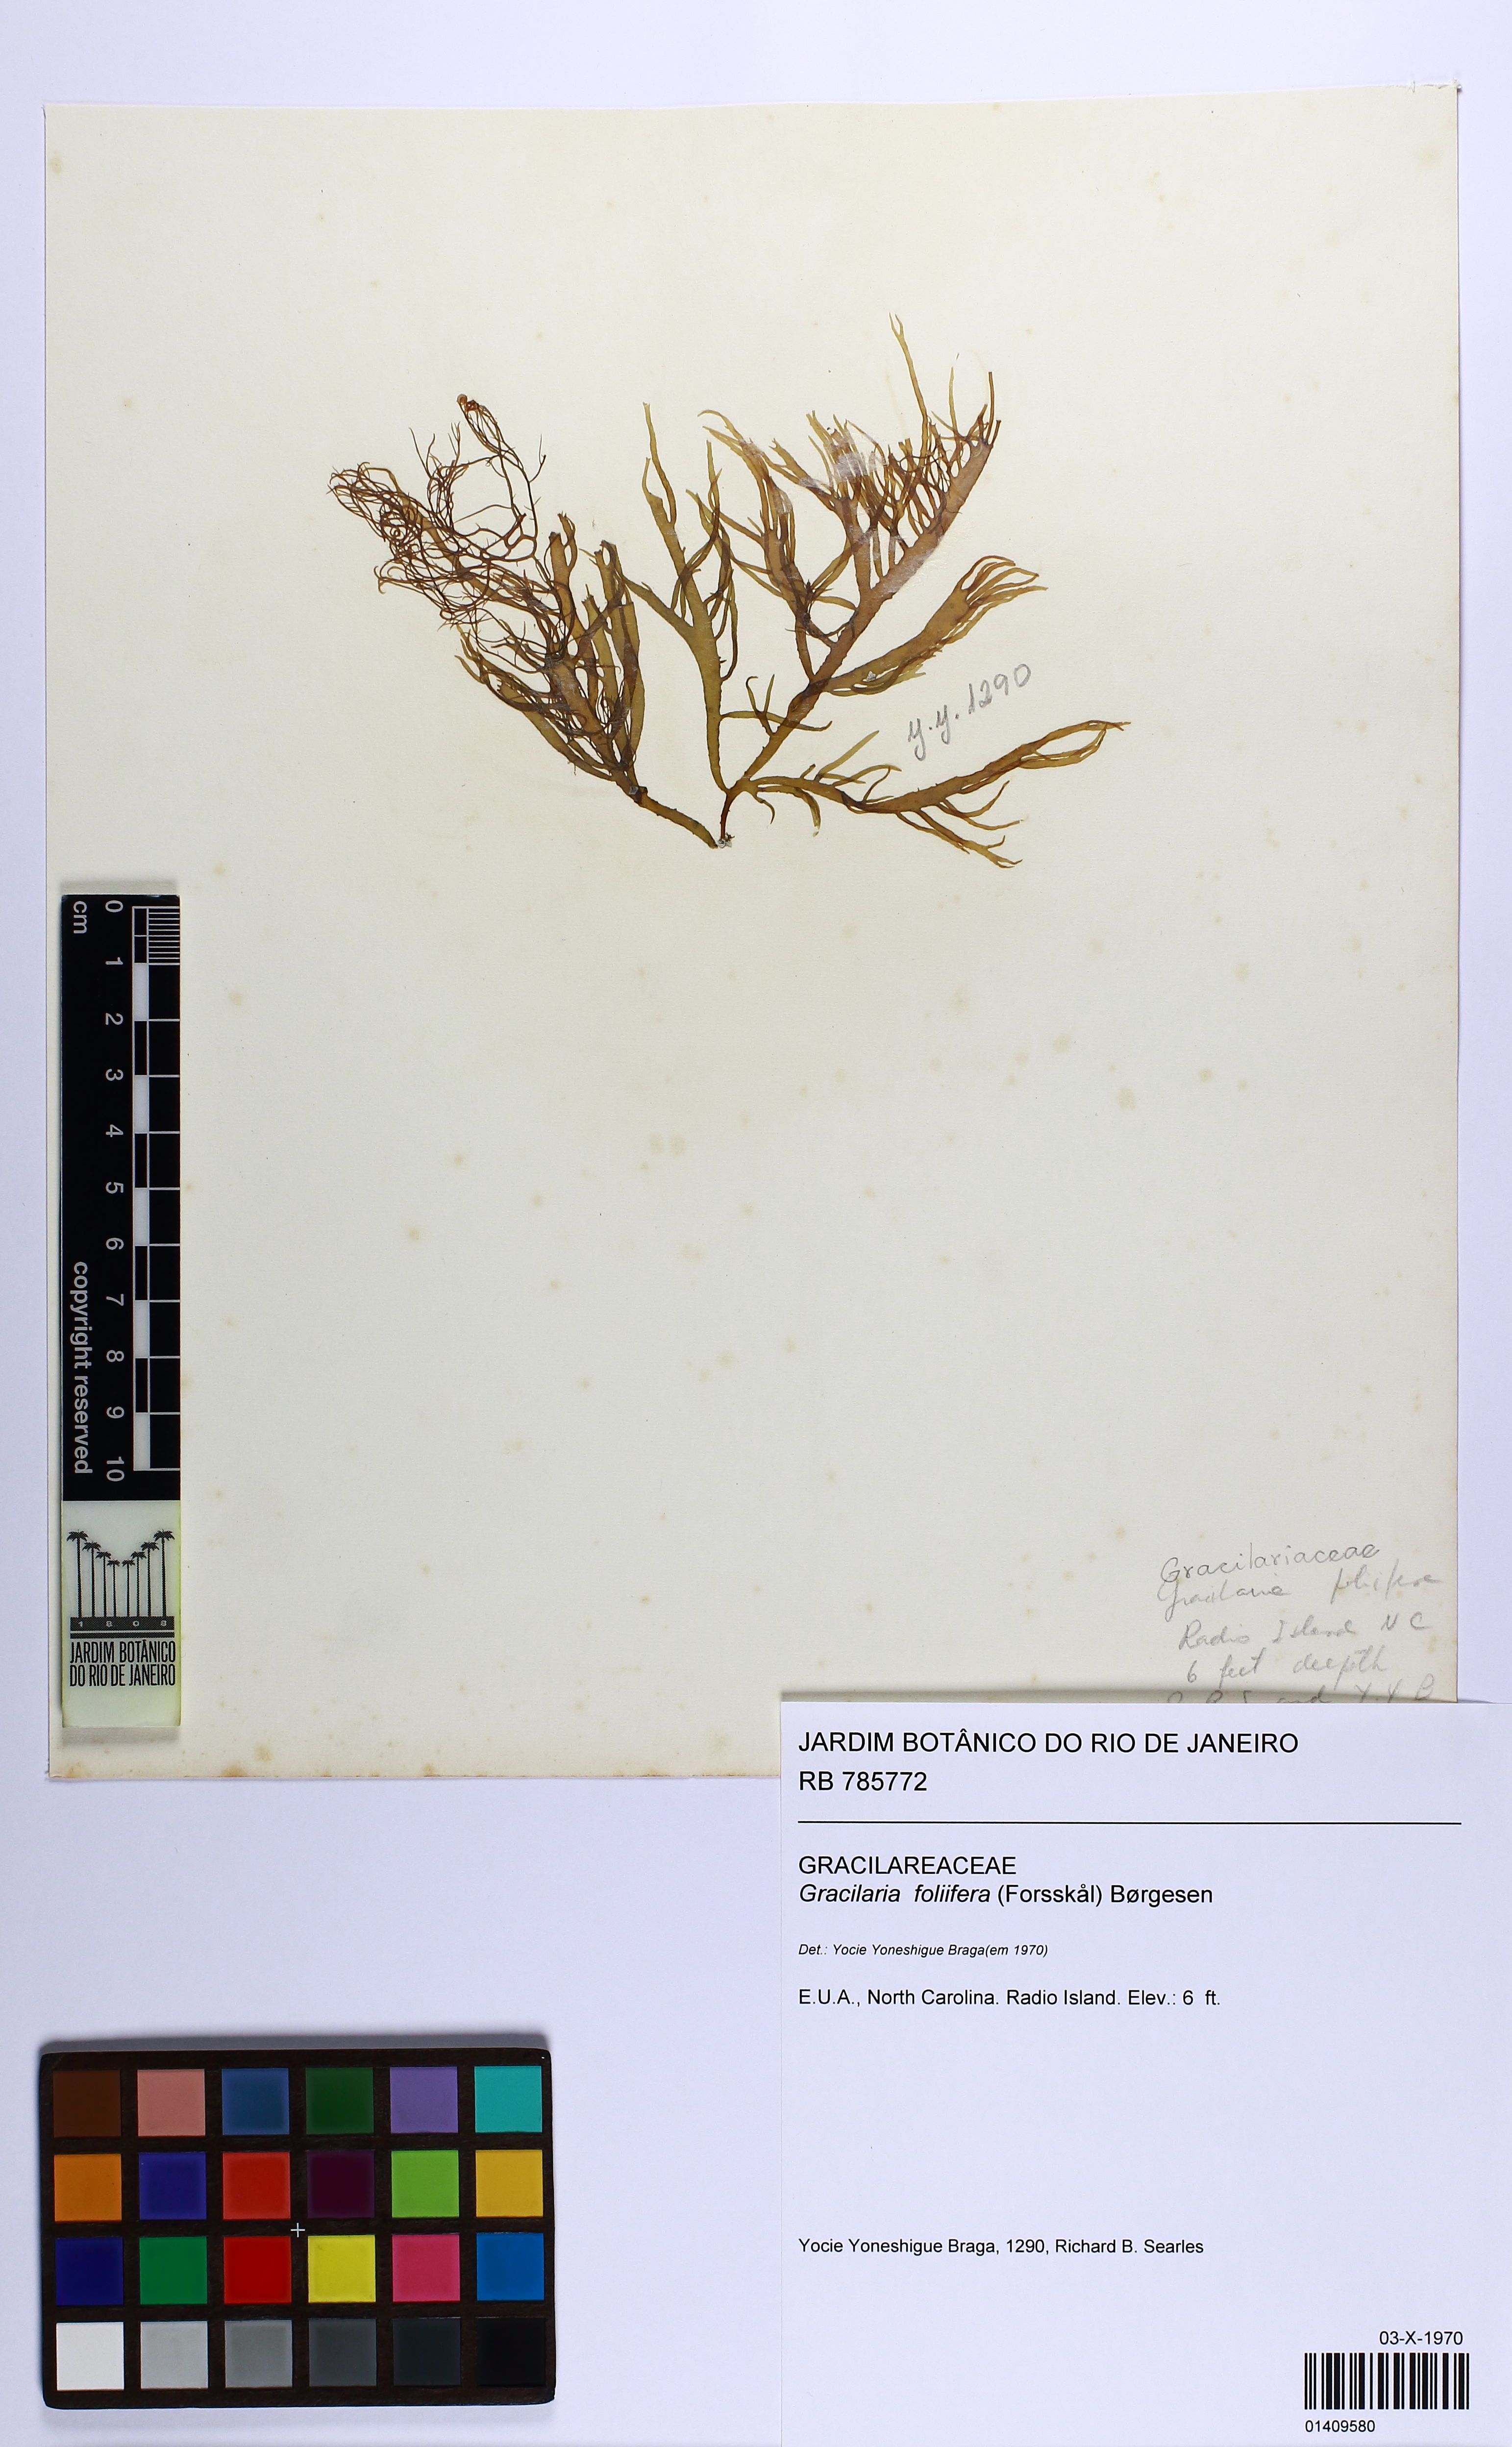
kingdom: Plantae
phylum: Rhodophyta
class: Florideophyceae
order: Gracilariales
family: Gracilariaceae
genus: Gracilaria
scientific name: Gracilaria foliifera
